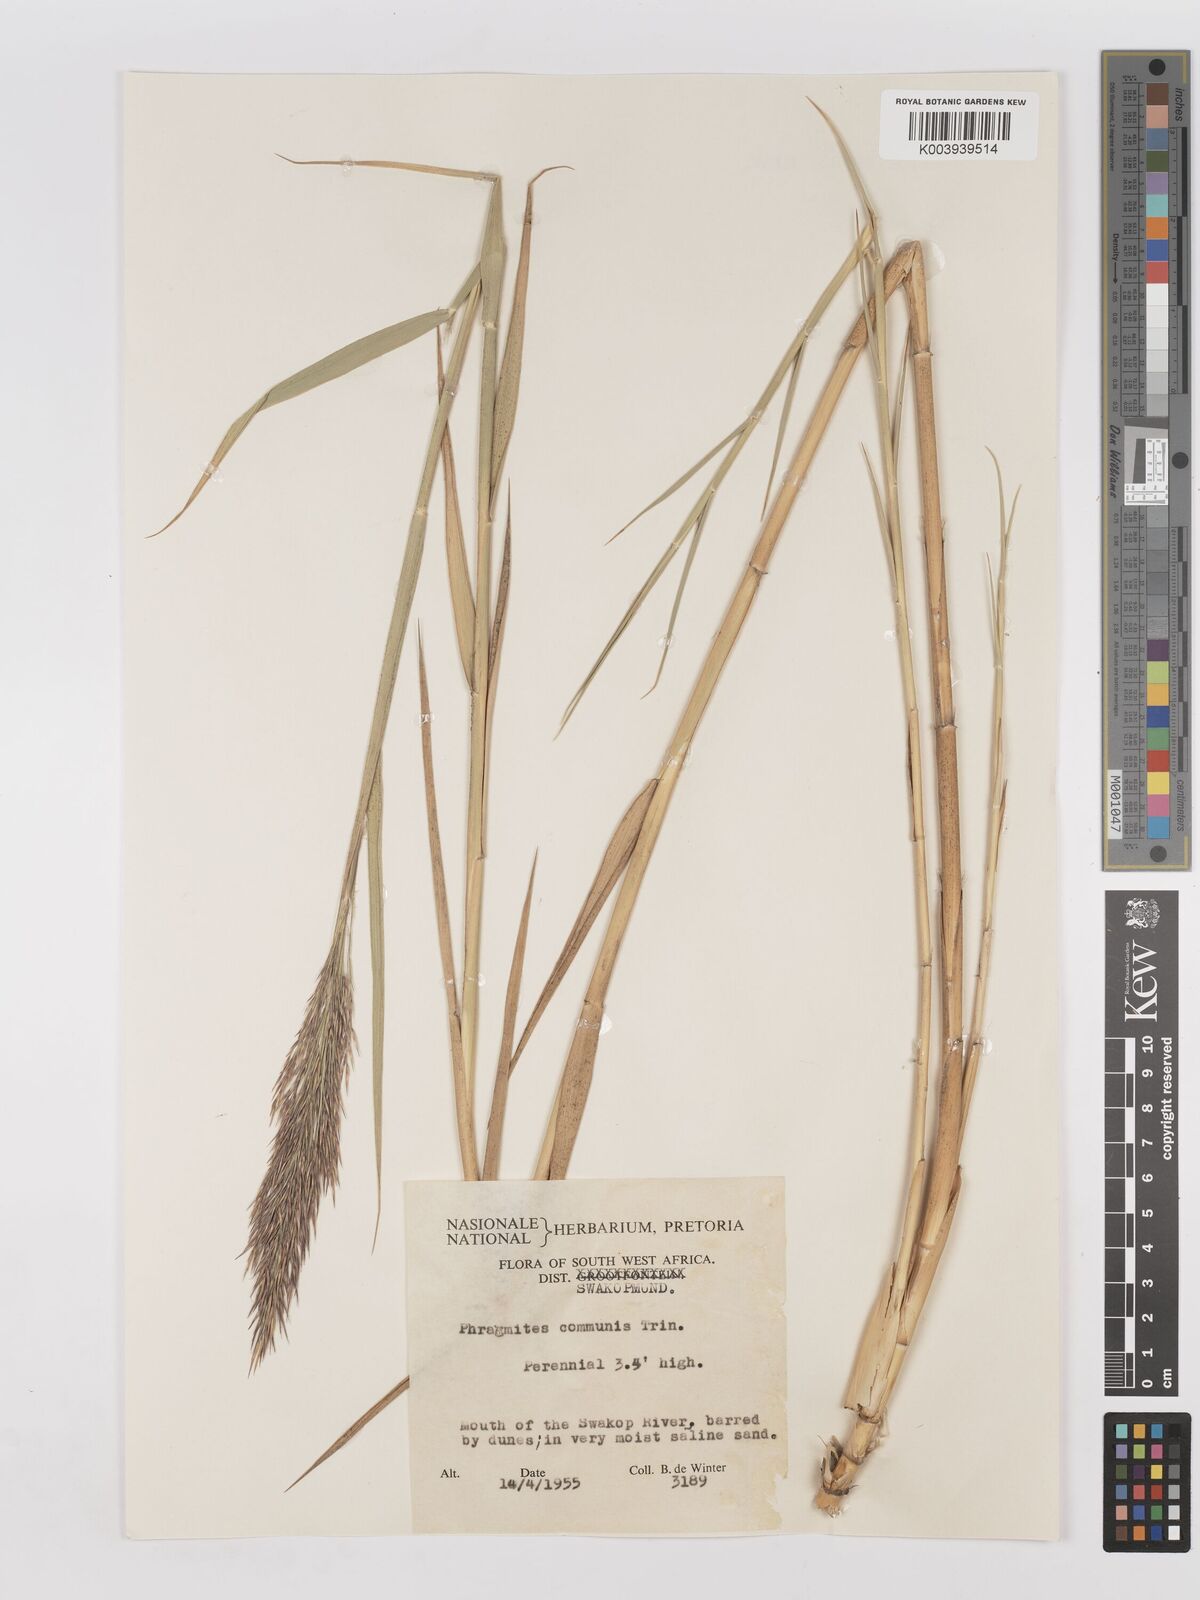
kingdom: Plantae
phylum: Tracheophyta
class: Liliopsida
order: Poales
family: Poaceae
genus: Phragmites
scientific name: Phragmites australis
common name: Common reed
